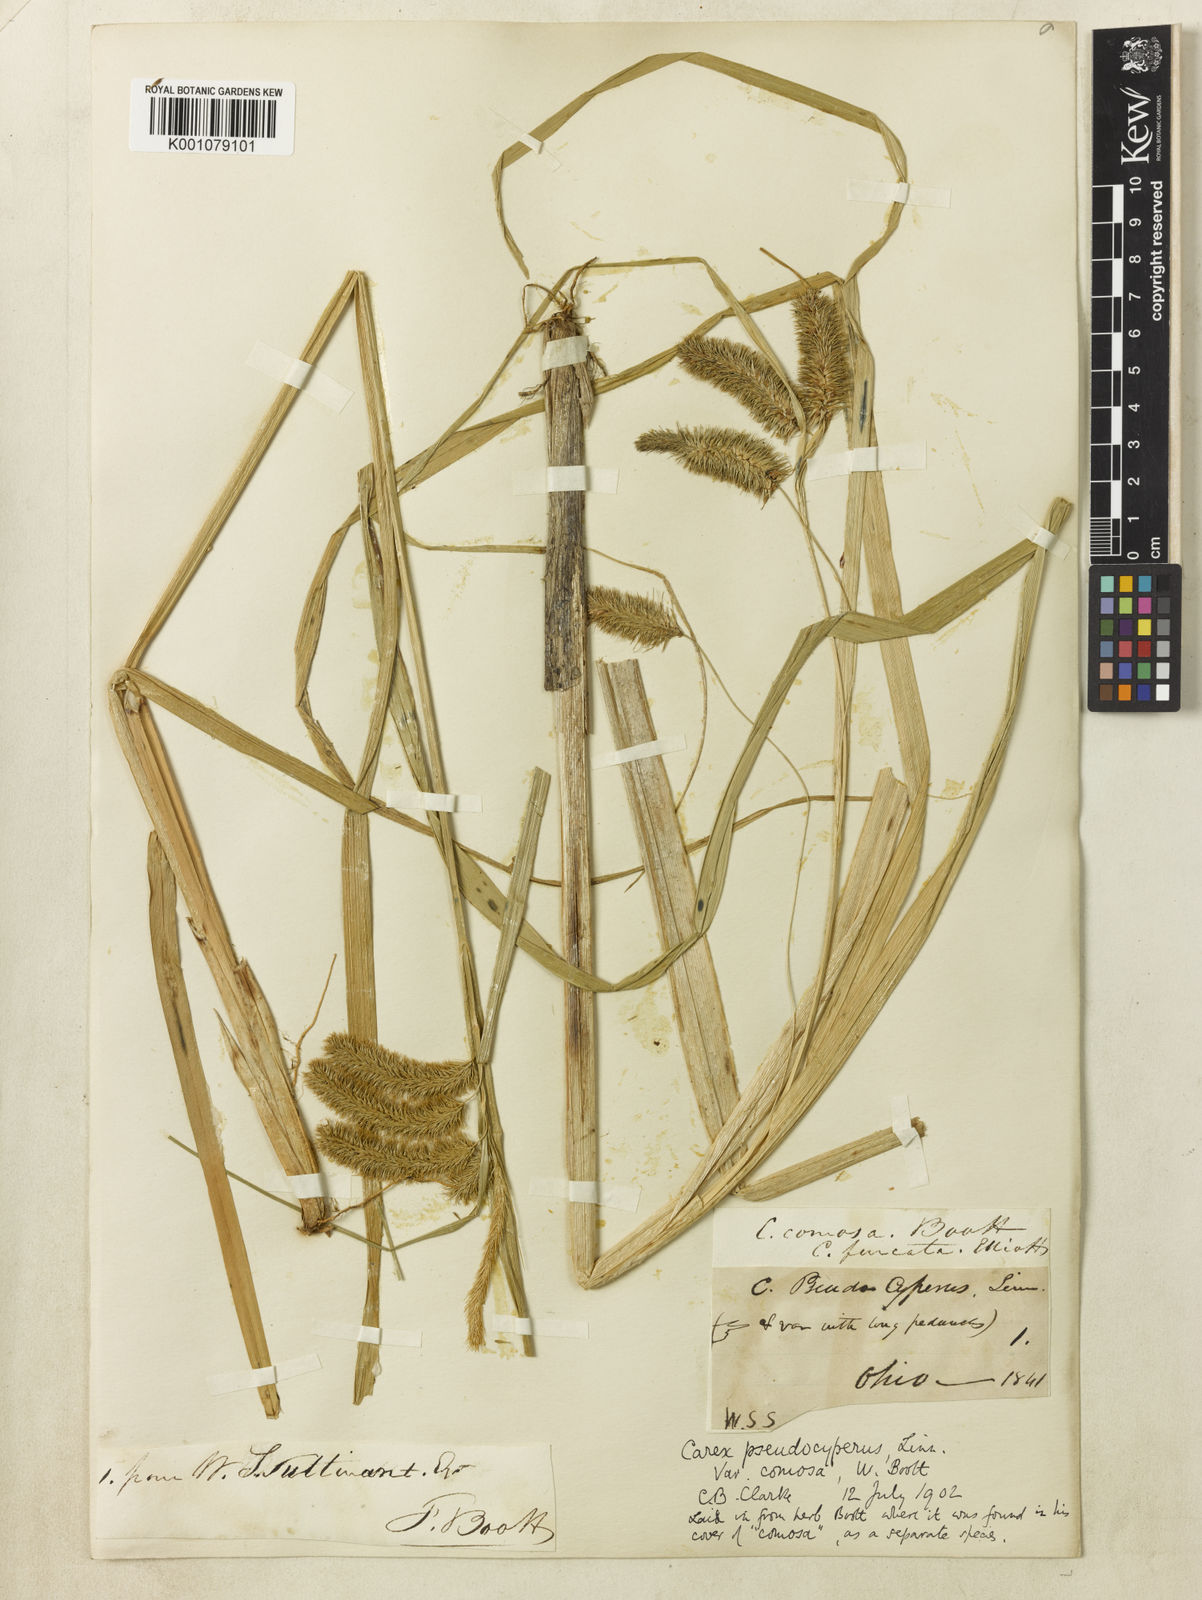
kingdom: Plantae
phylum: Tracheophyta
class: Liliopsida
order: Poales
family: Cyperaceae
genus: Carex
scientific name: Carex comosa
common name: Bristly sedge
